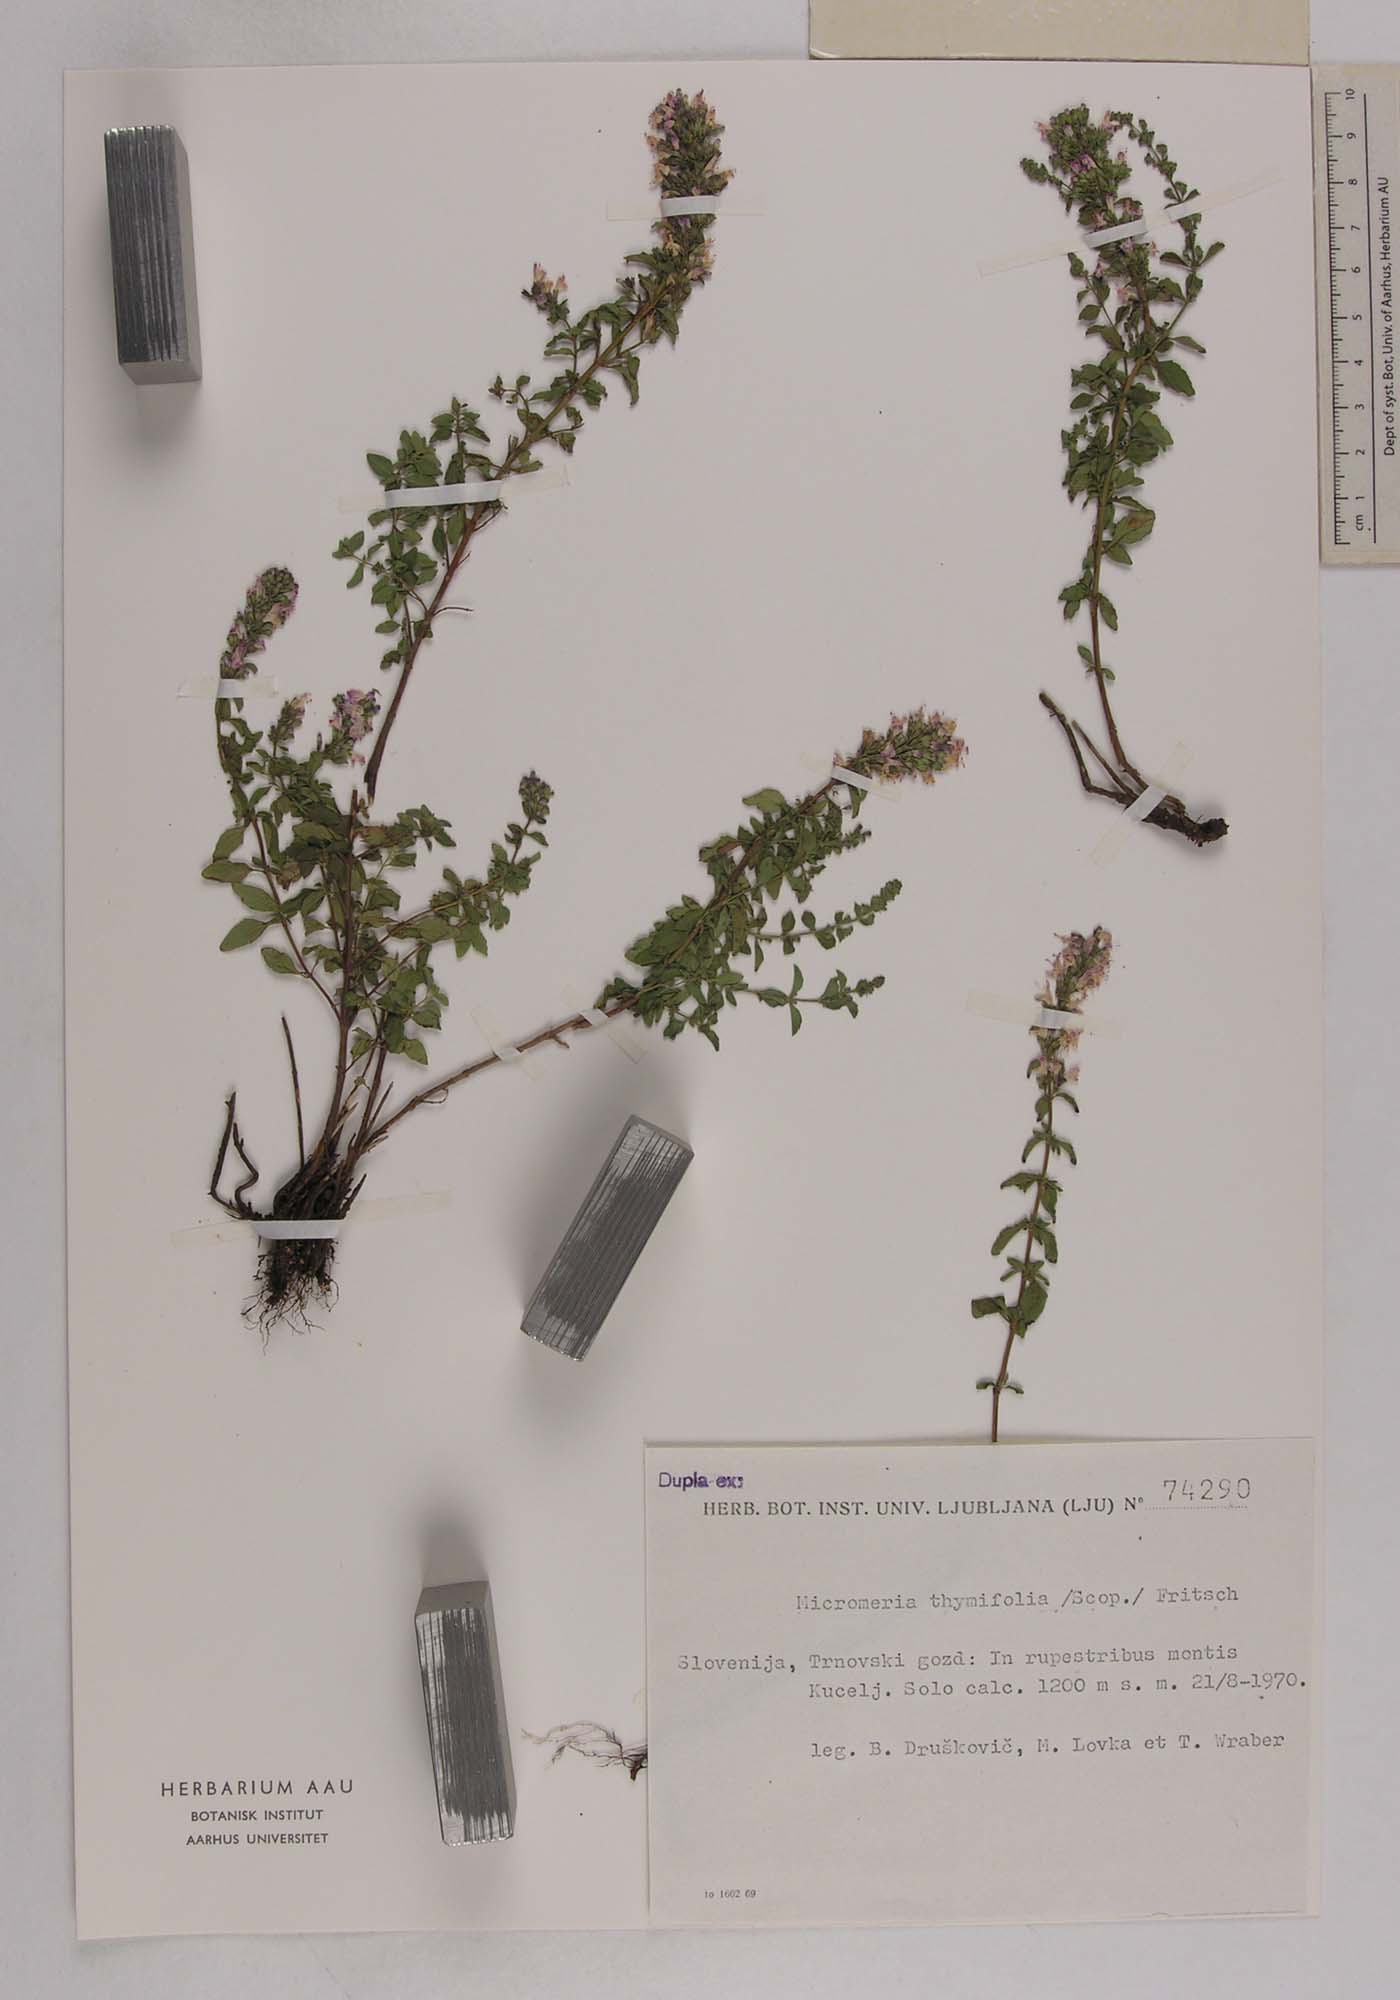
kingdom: Plantae
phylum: Tracheophyta
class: Magnoliopsida
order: Lamiales
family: Lamiaceae
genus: Clinopodium
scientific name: Clinopodium album
